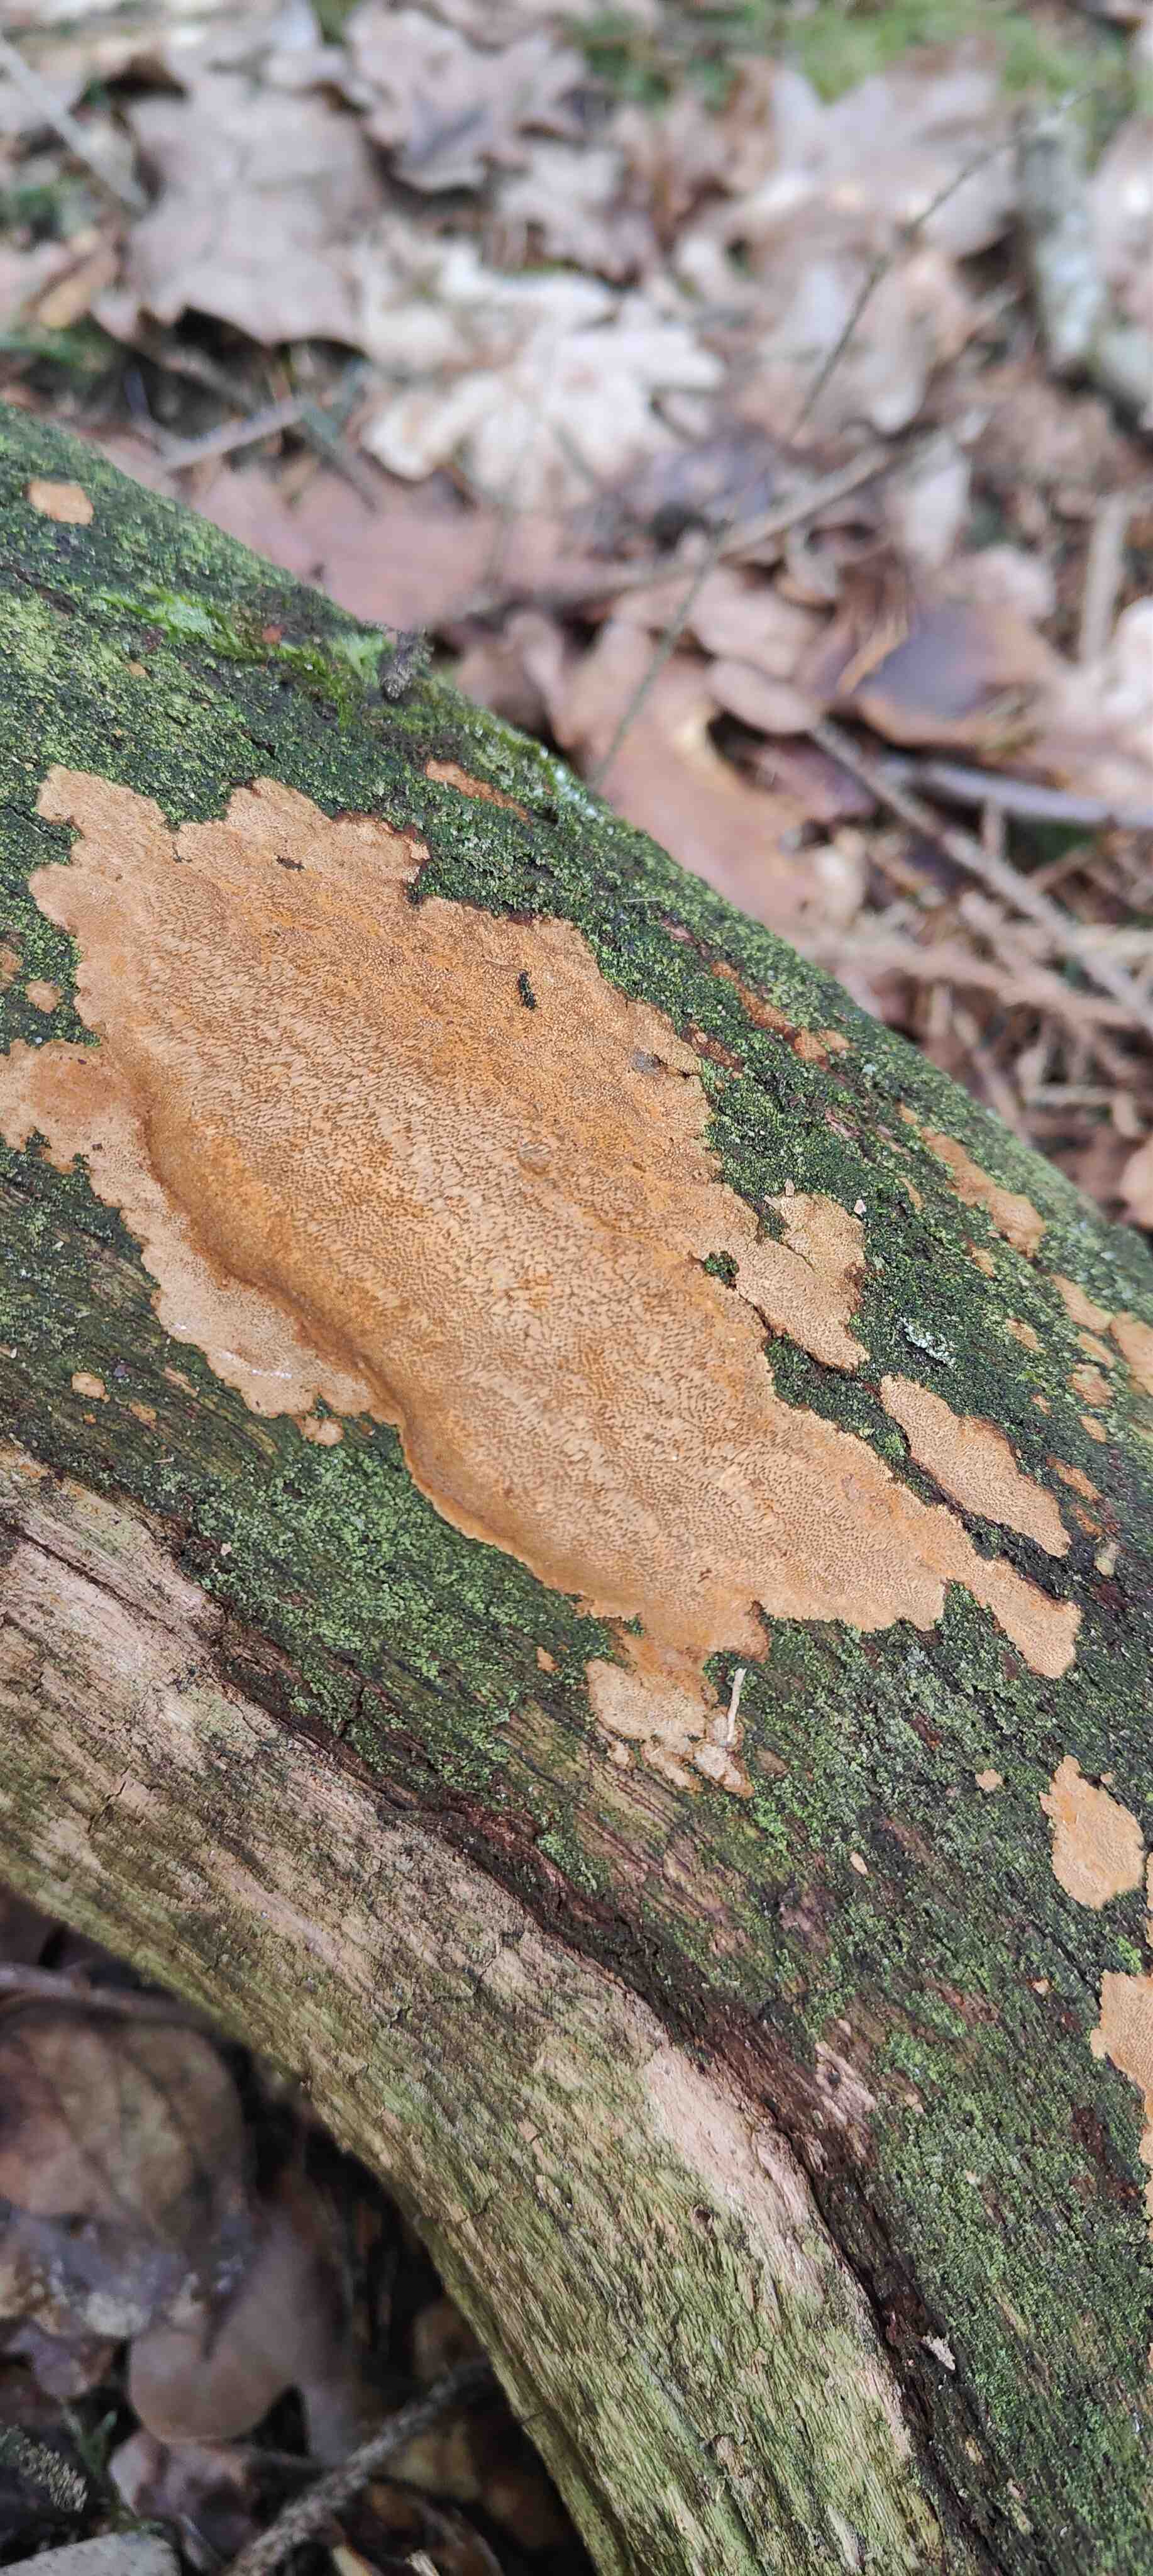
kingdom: Fungi
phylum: Basidiomycota
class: Agaricomycetes
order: Hymenochaetales
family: Hymenochaetaceae
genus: Fuscoporia
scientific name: Fuscoporia ferrea
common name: skorpe-ildporesvamp
